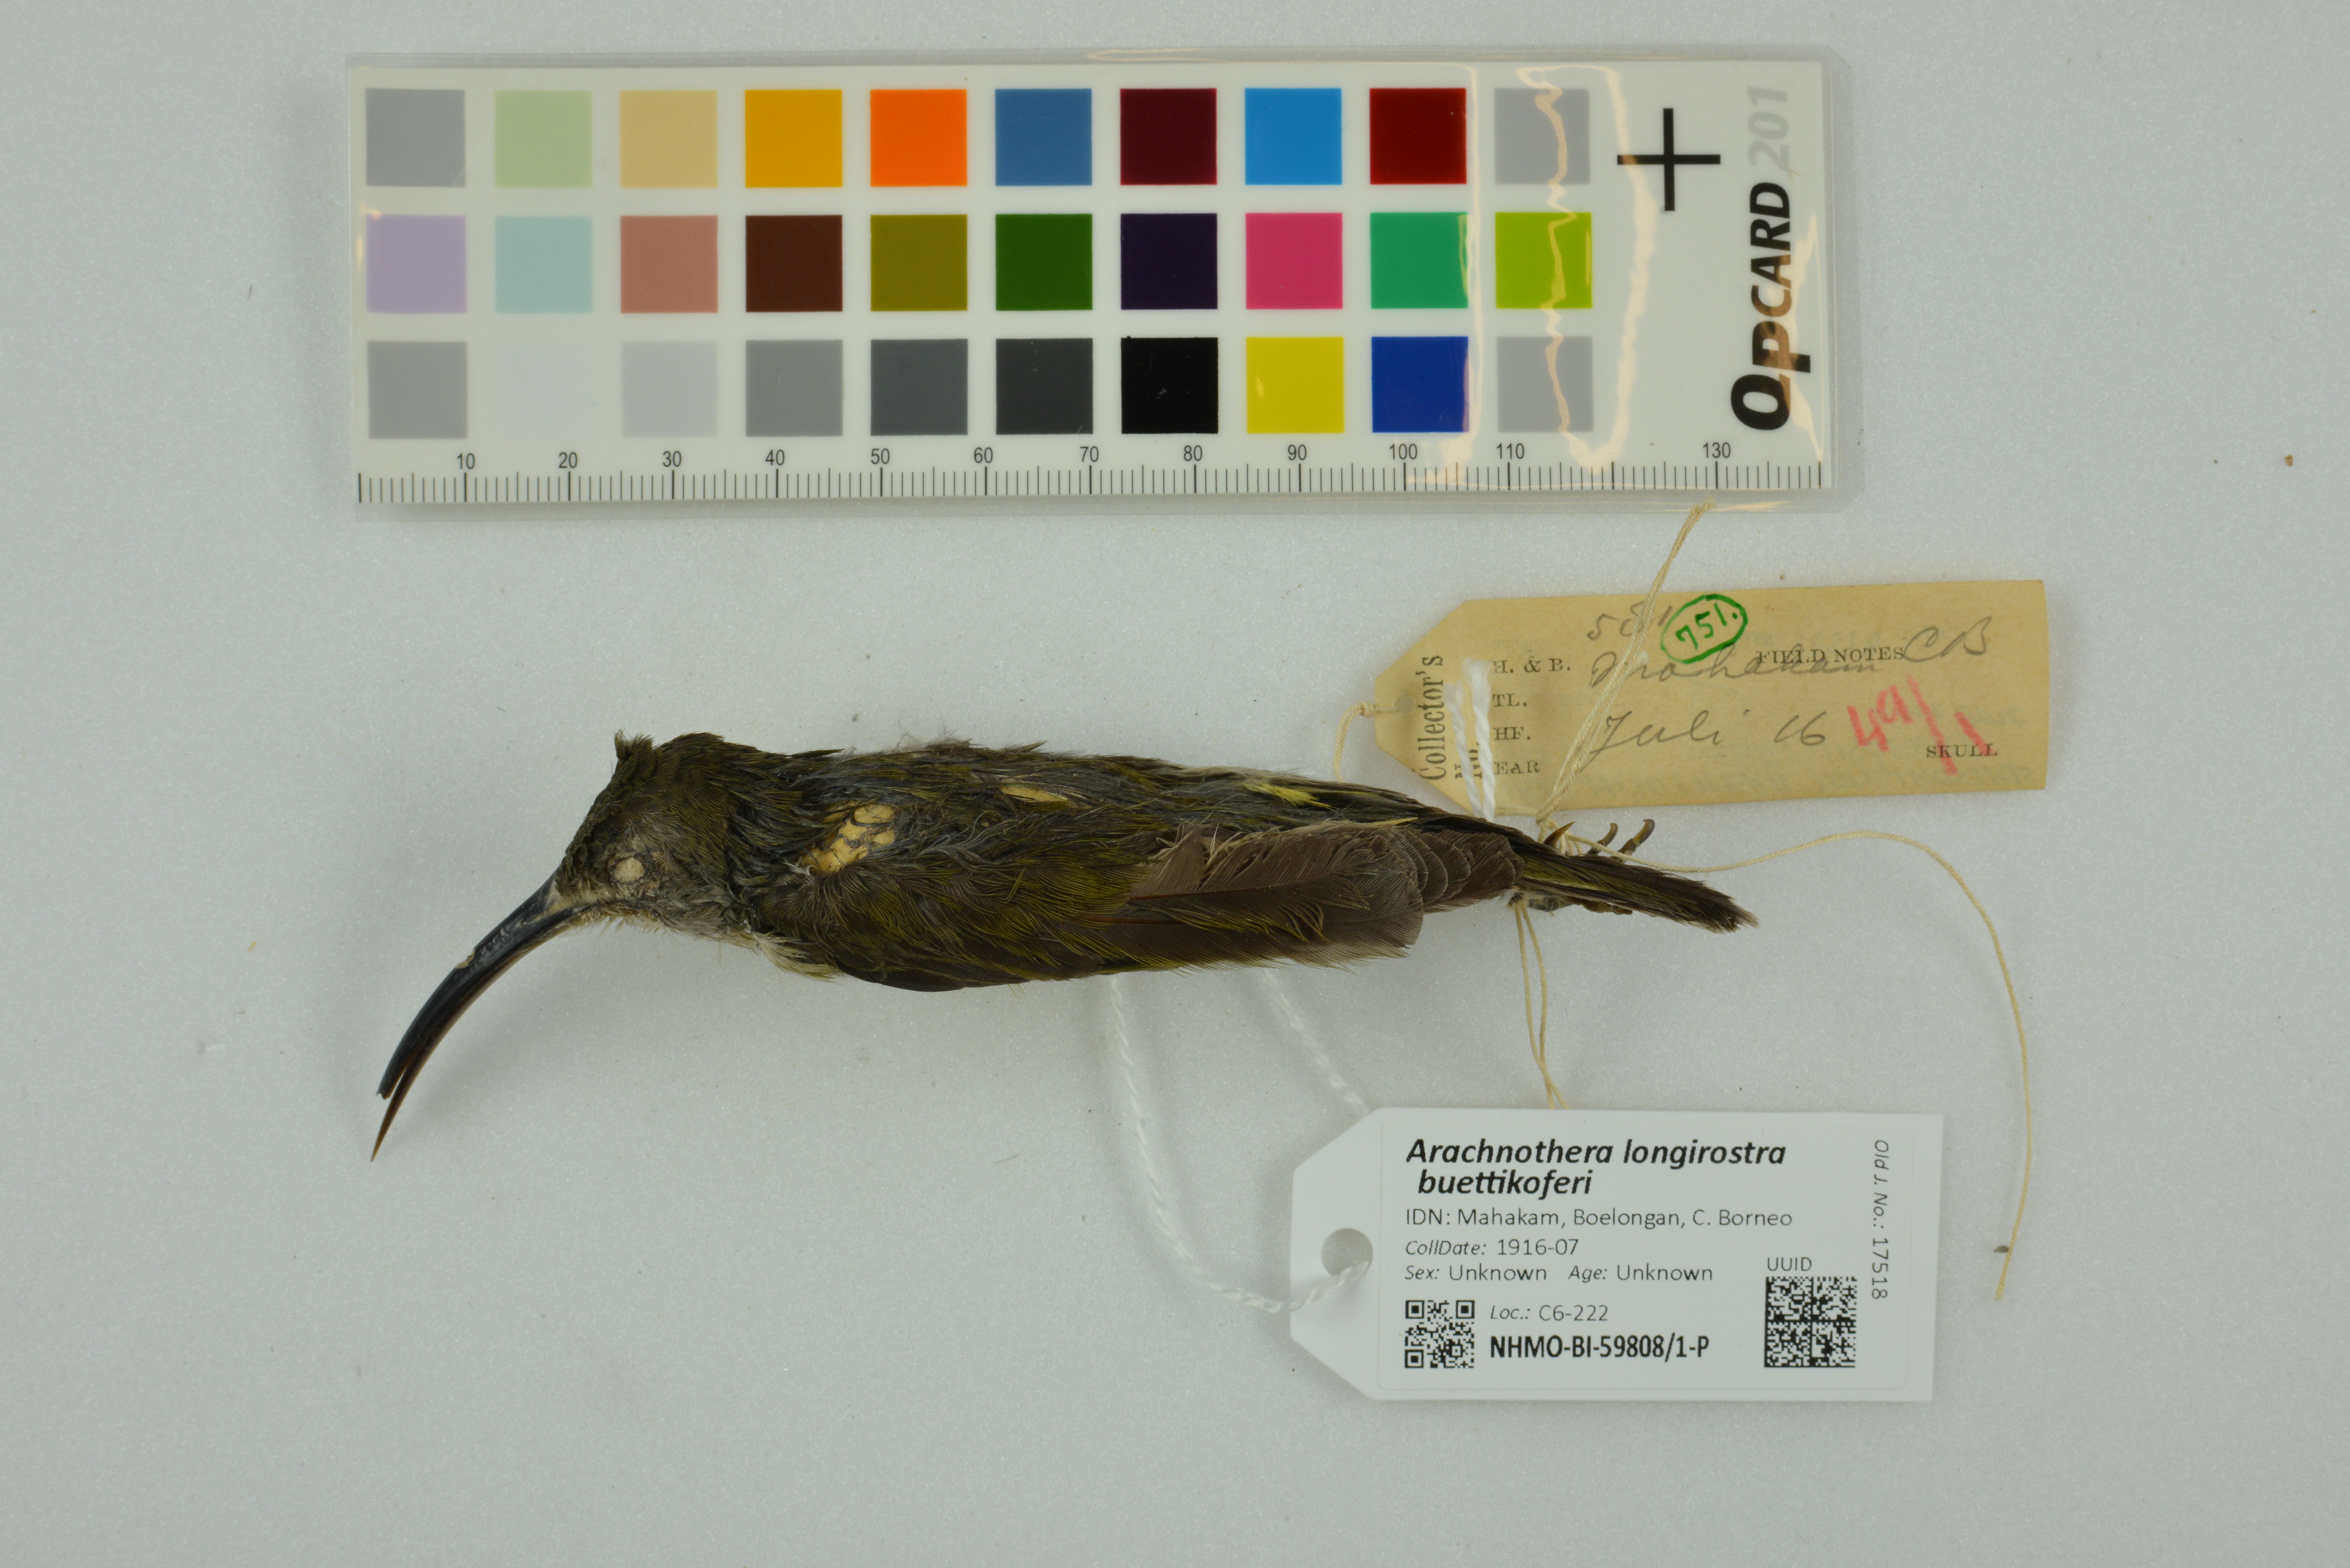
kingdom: Animalia
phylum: Chordata
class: Aves
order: Passeriformes
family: Nectariniidae
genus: Arachnothera
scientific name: Arachnothera longirostra
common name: Little spiderhunter
